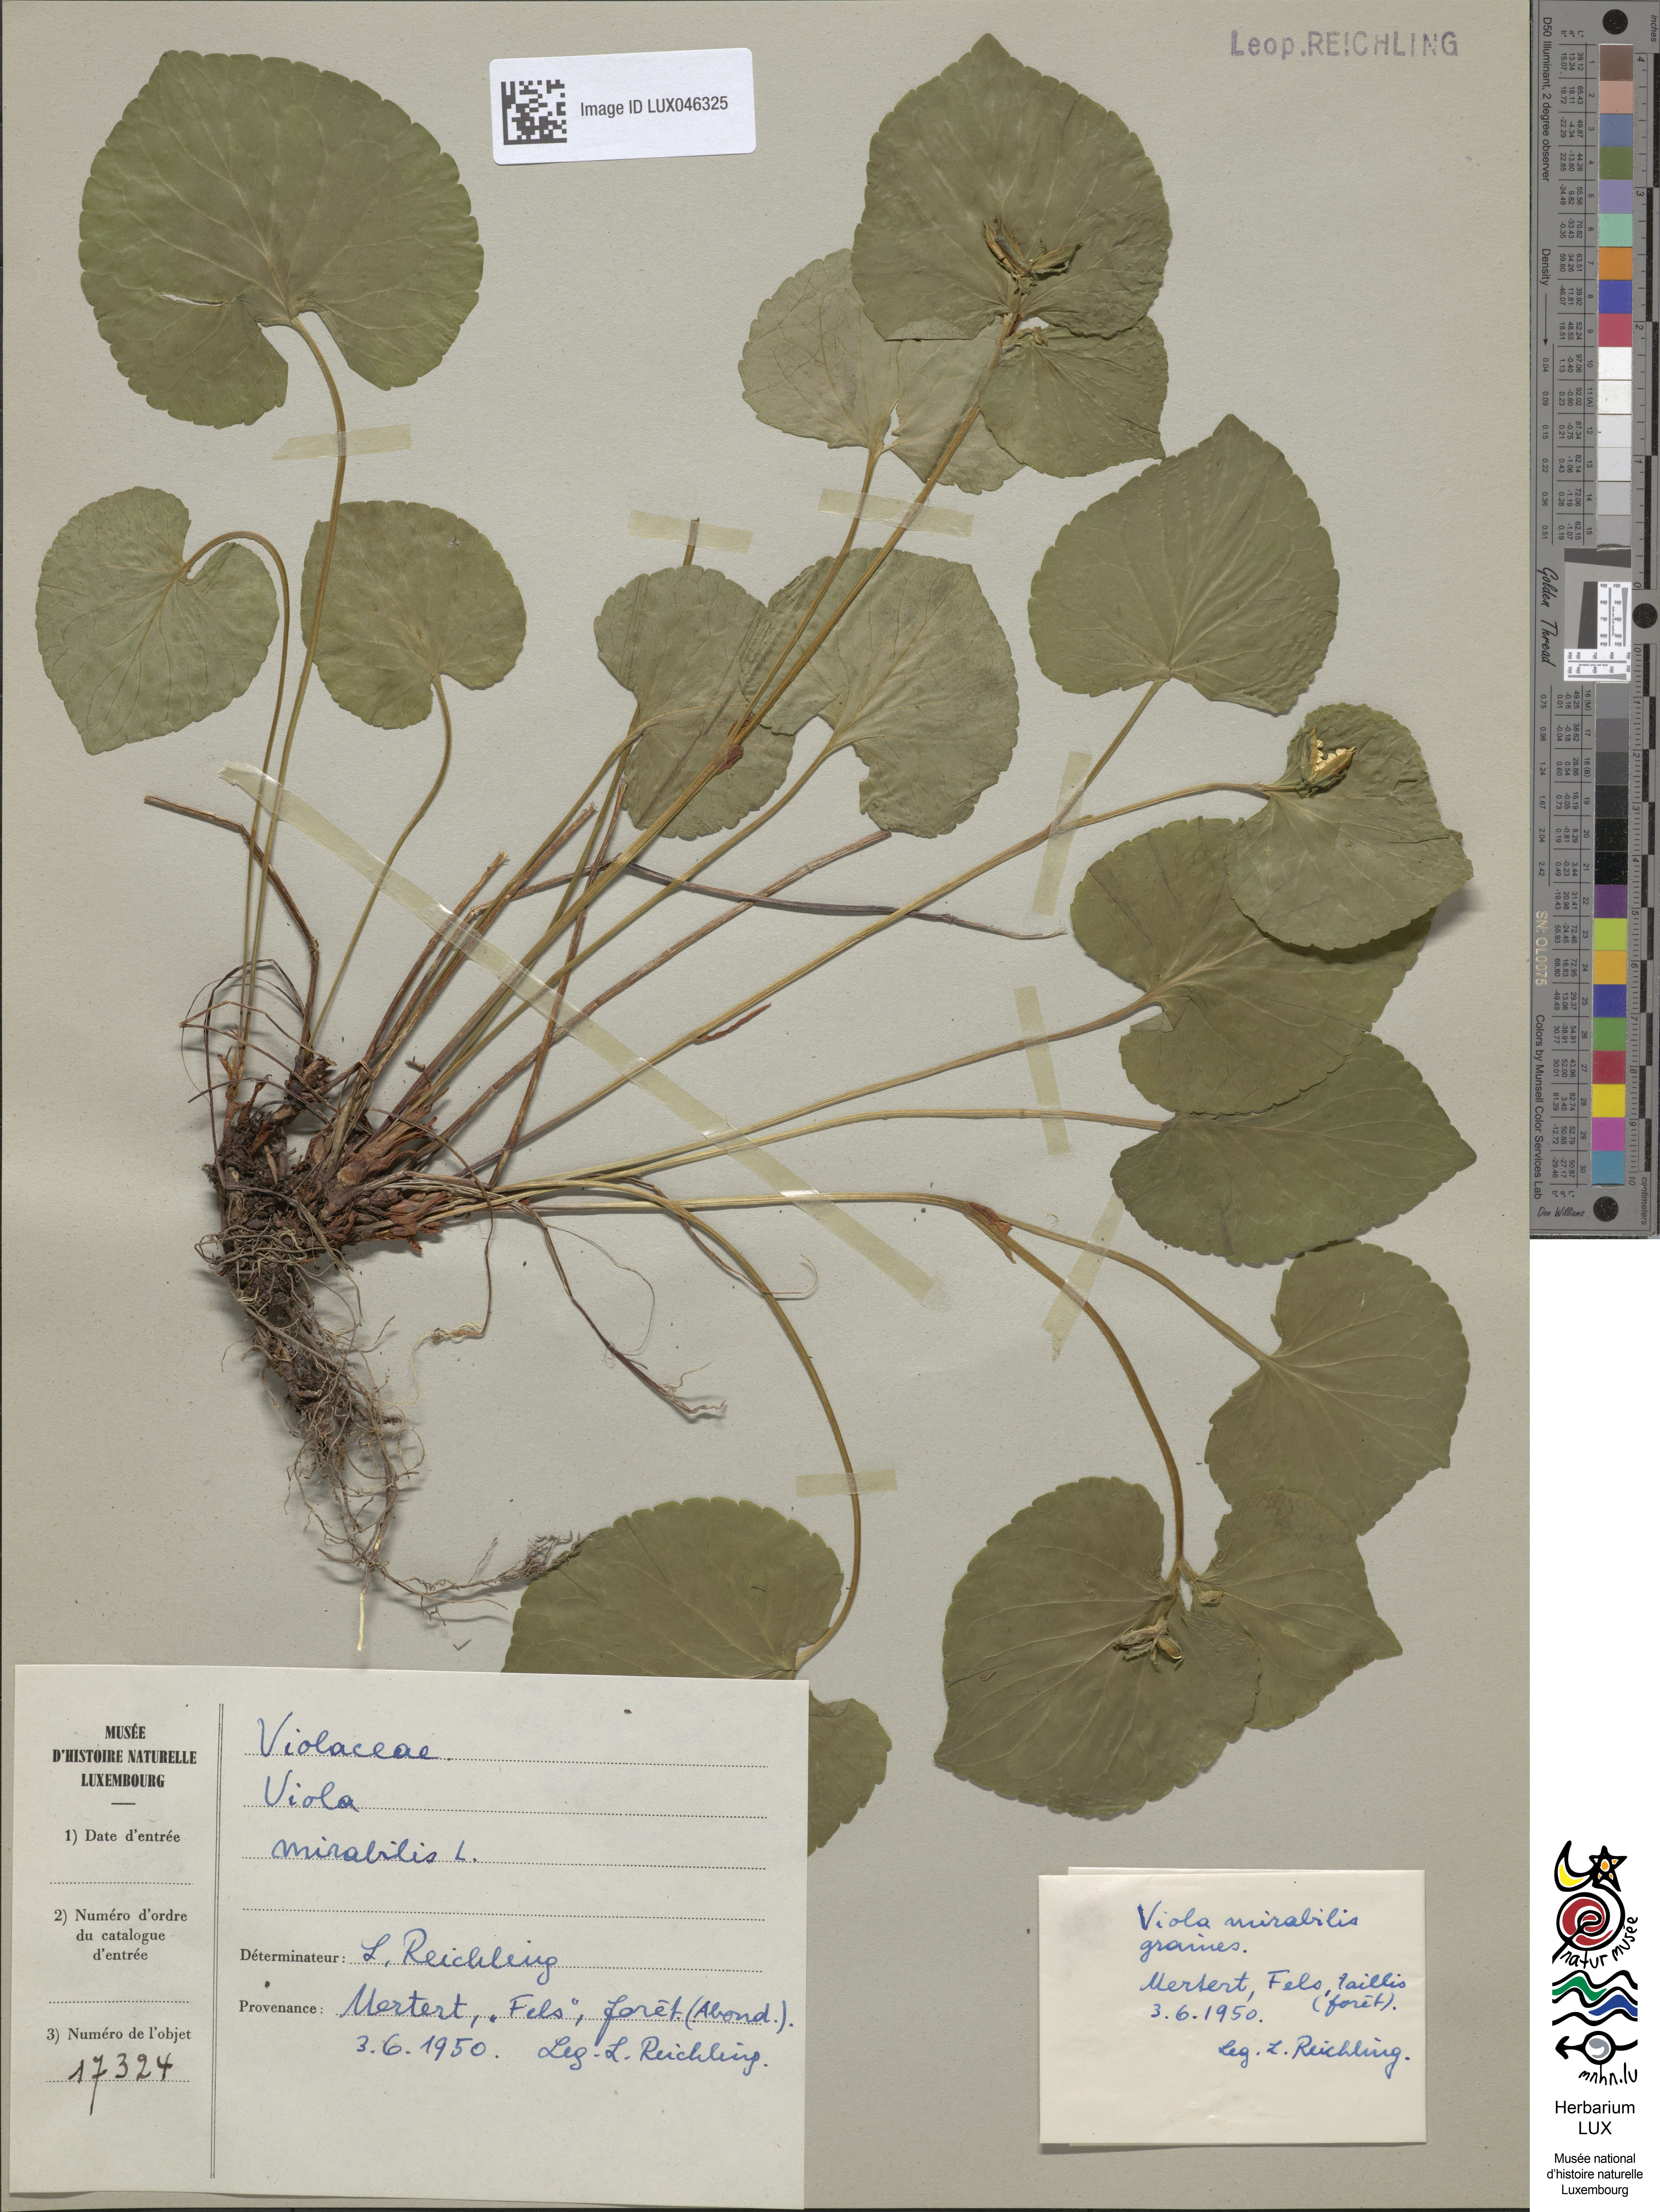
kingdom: Plantae
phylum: Tracheophyta
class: Magnoliopsida
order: Malpighiales
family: Violaceae
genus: Viola
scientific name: Viola mirabilis
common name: Wonder violet
